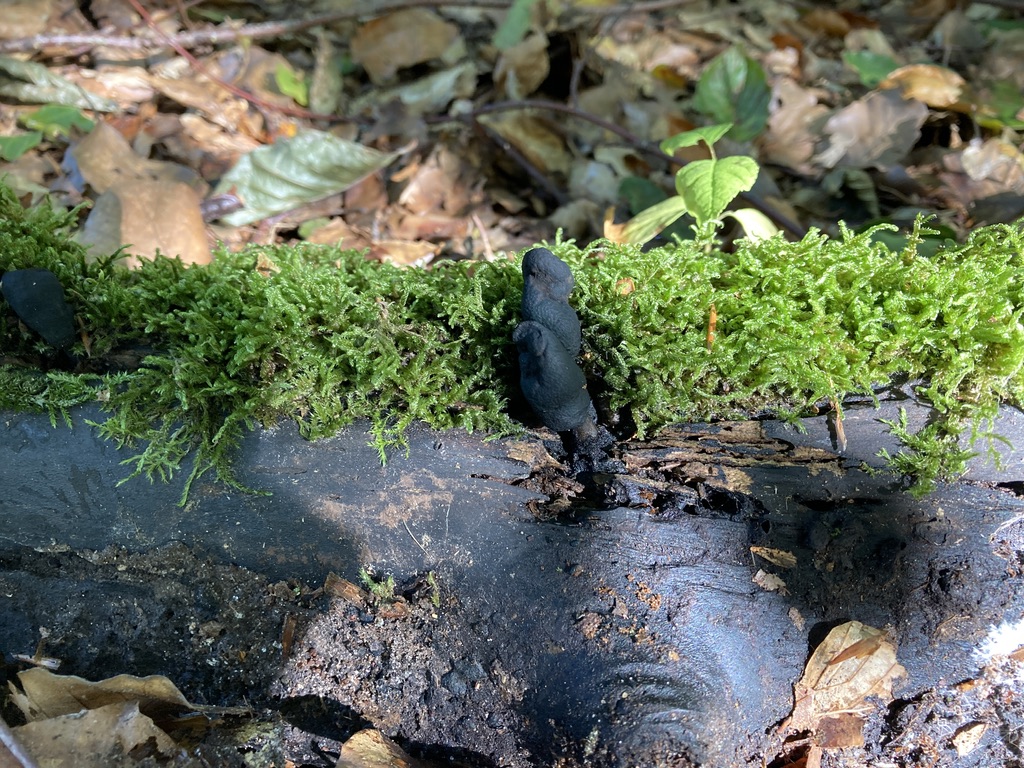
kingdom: Fungi
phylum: Ascomycota
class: Sordariomycetes
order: Xylariales
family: Xylariaceae
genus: Xylaria
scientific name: Xylaria longipes
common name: slank stødsvamp
